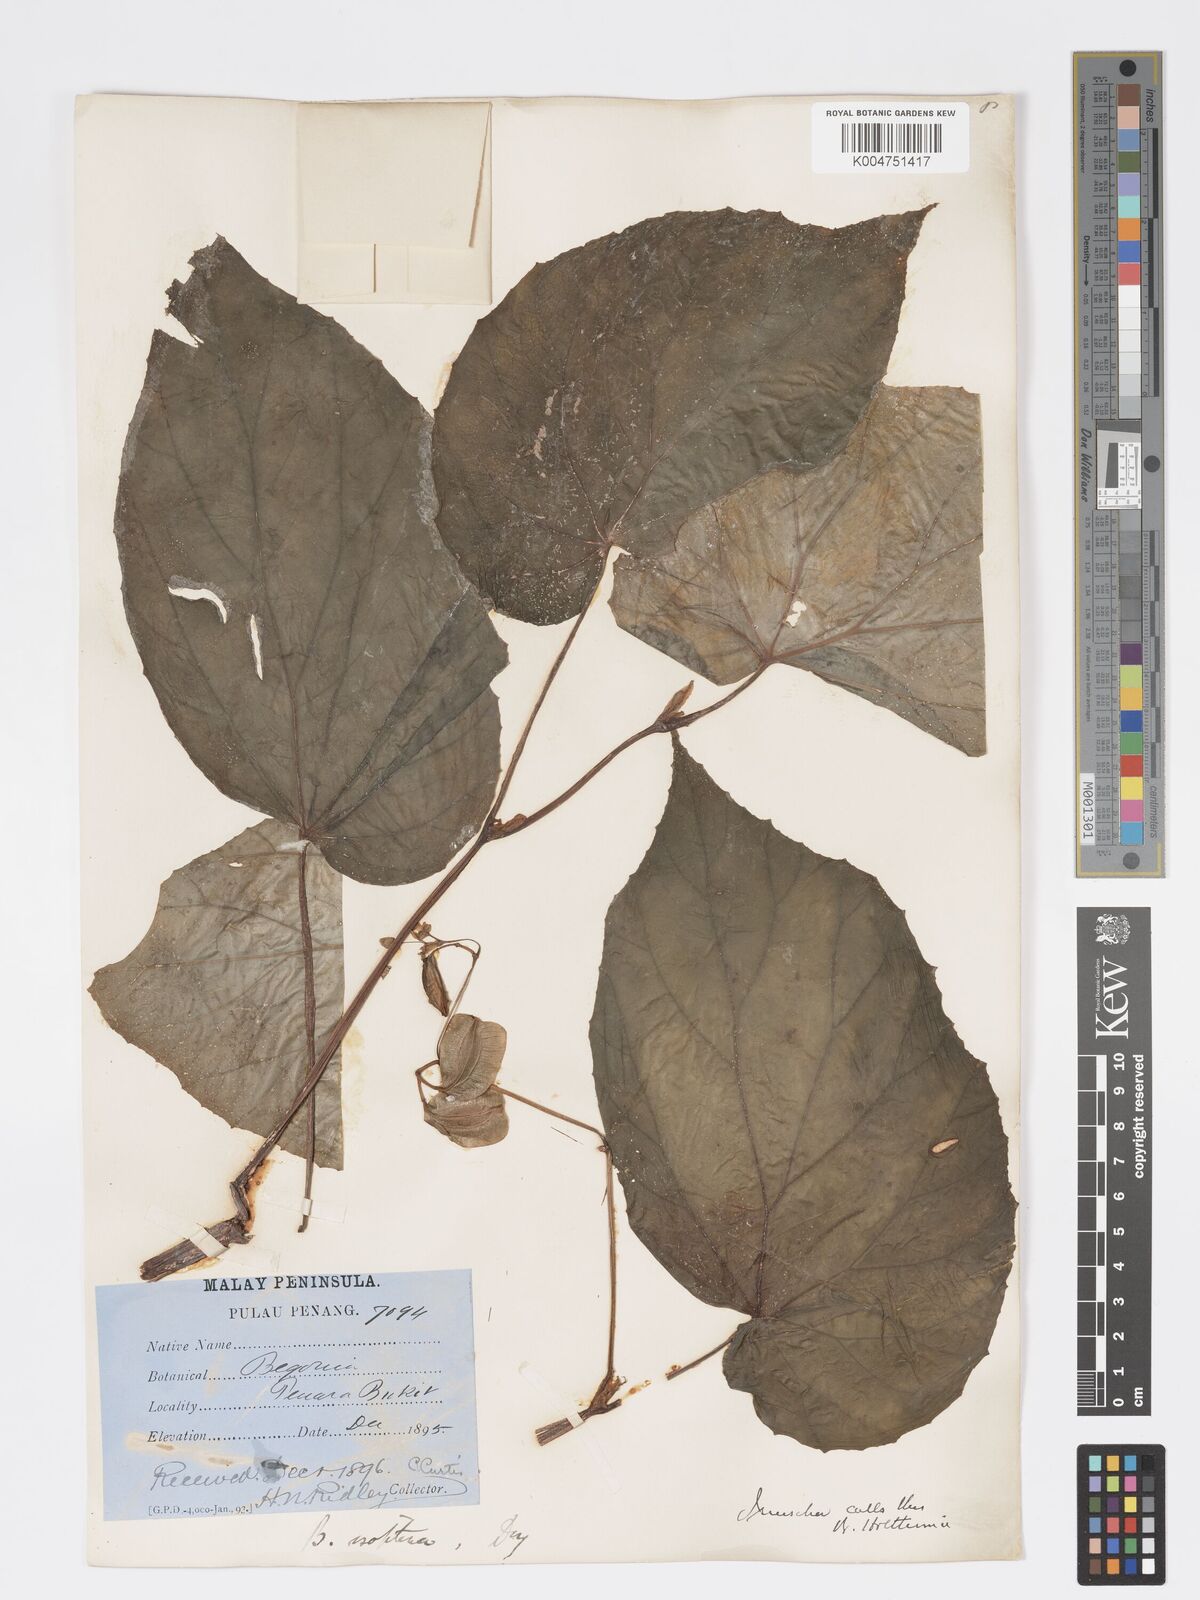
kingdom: Plantae
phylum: Tracheophyta
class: Magnoliopsida
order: Cucurbitales
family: Begoniaceae
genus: Begonia
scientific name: Begonia holttumii
